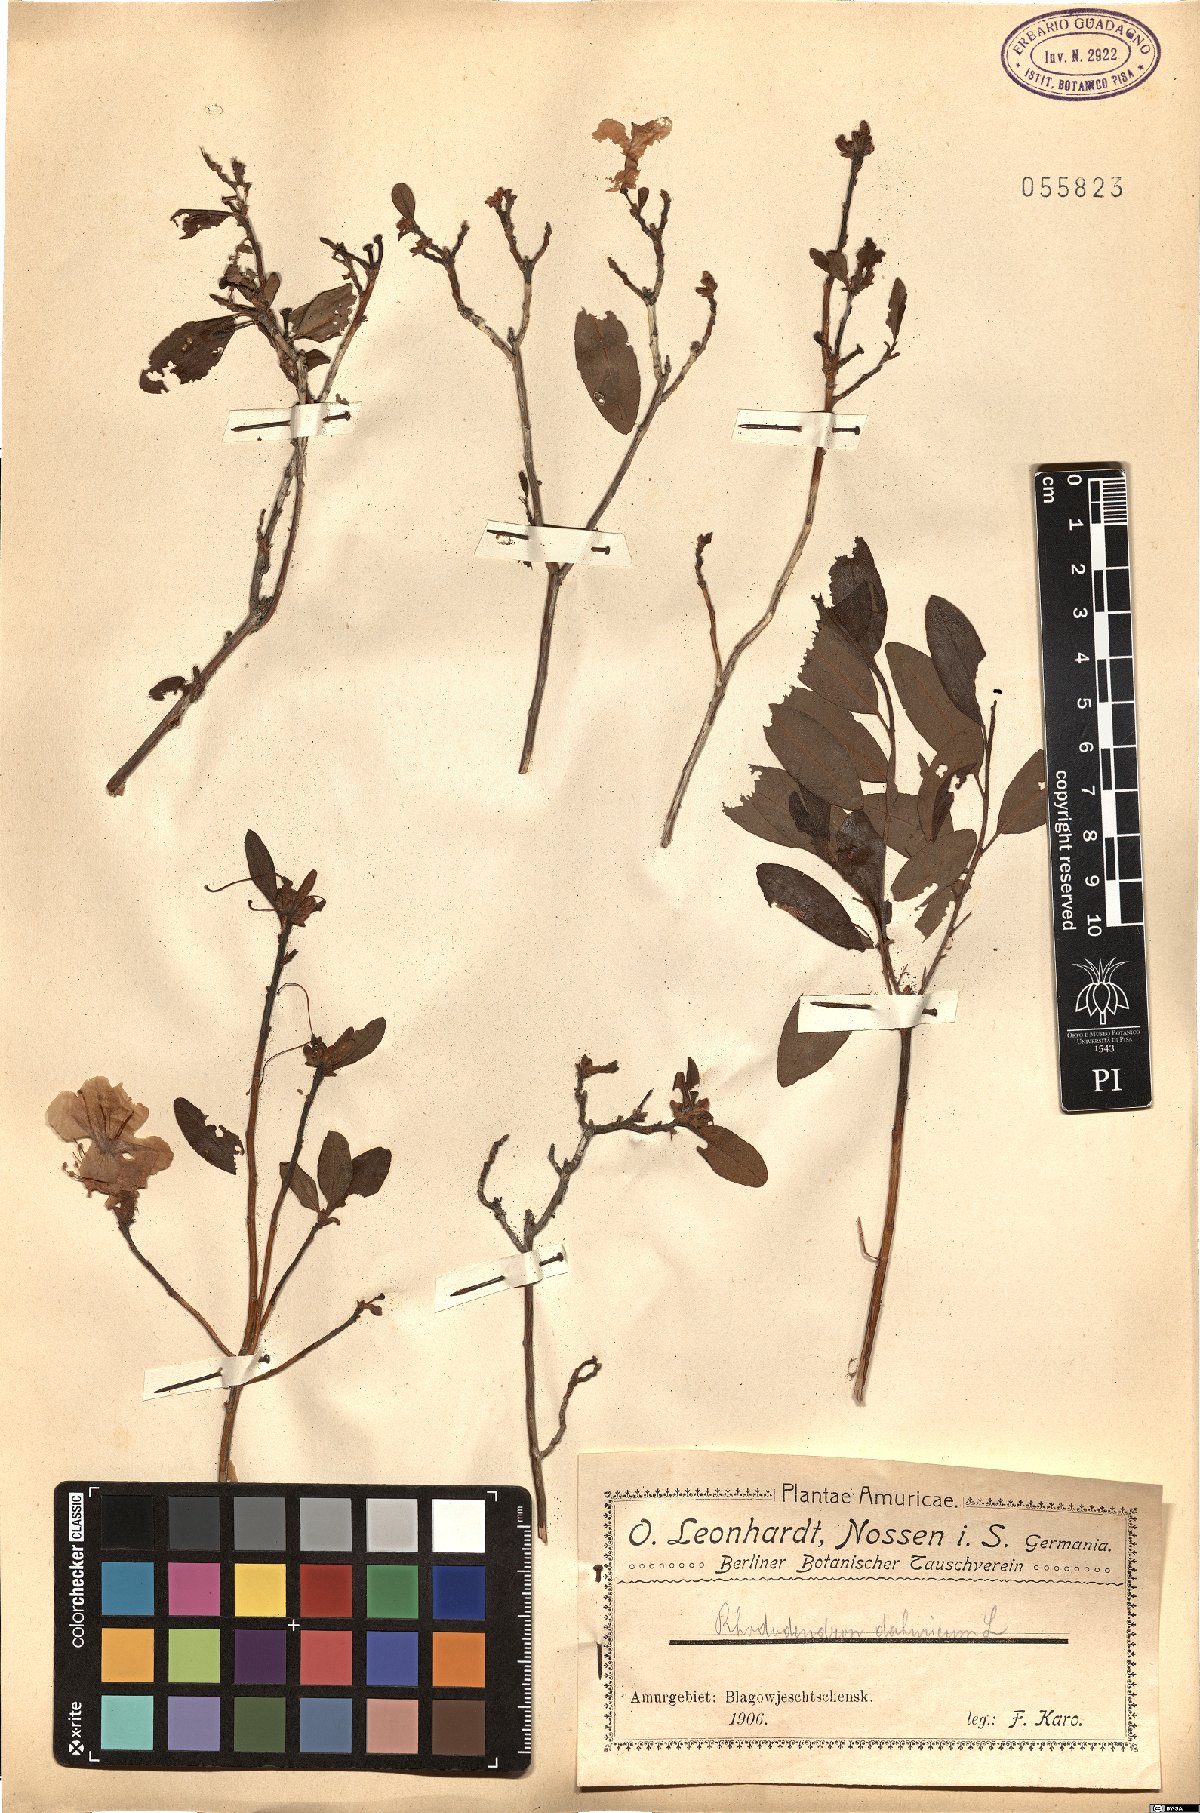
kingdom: Plantae
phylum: Tracheophyta
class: Magnoliopsida
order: Ericales
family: Ericaceae
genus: Rhododendron
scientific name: Rhododendron dauricum
